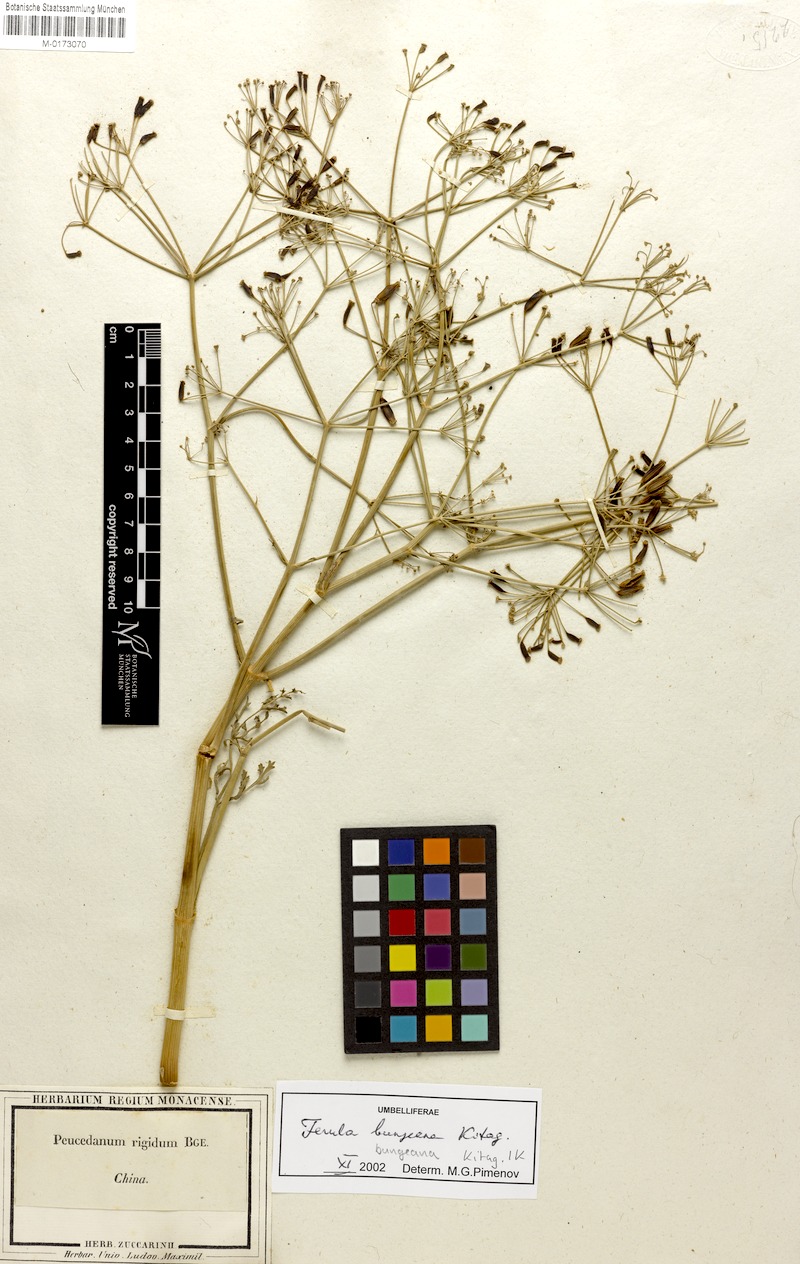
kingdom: Plantae
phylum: Tracheophyta
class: Magnoliopsida
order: Apiales
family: Apiaceae
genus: Ferula
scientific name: Ferula bungeana
